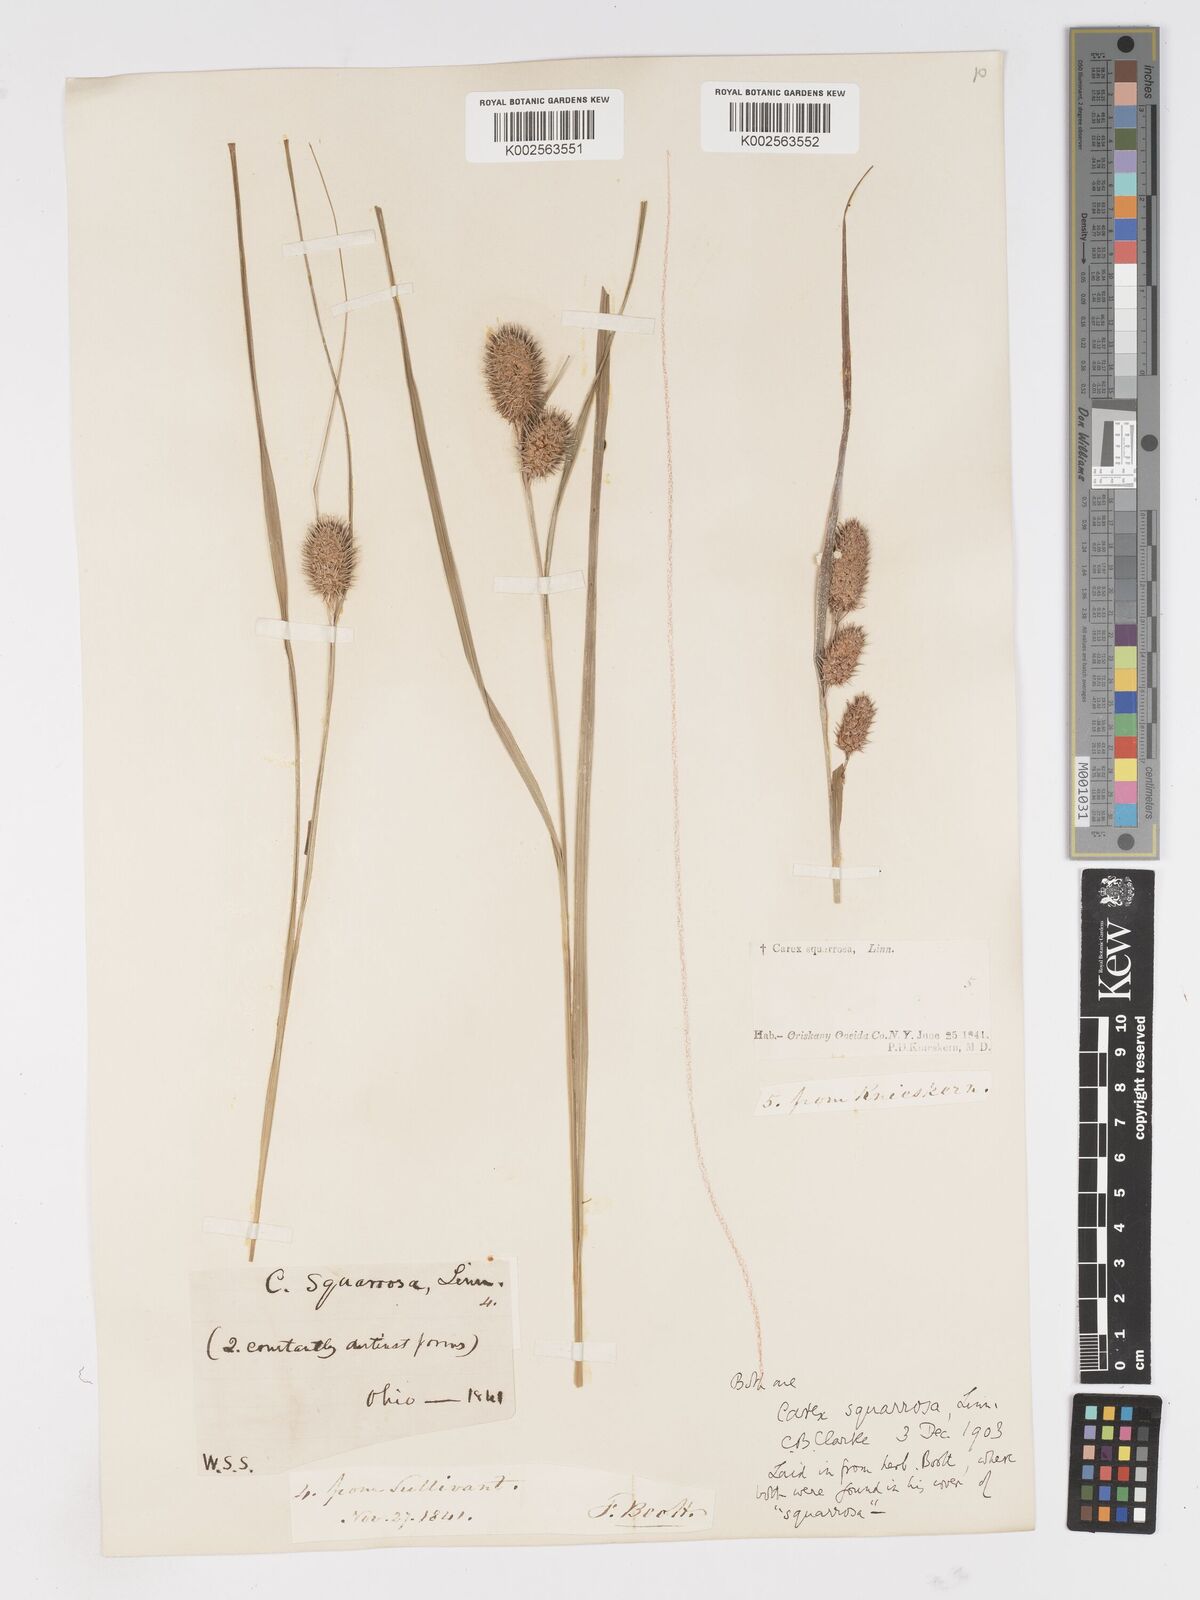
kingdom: Plantae
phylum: Tracheophyta
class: Liliopsida
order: Poales
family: Cyperaceae
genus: Carex
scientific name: Carex squarrosa
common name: Narrow-leaved cattail sedge
